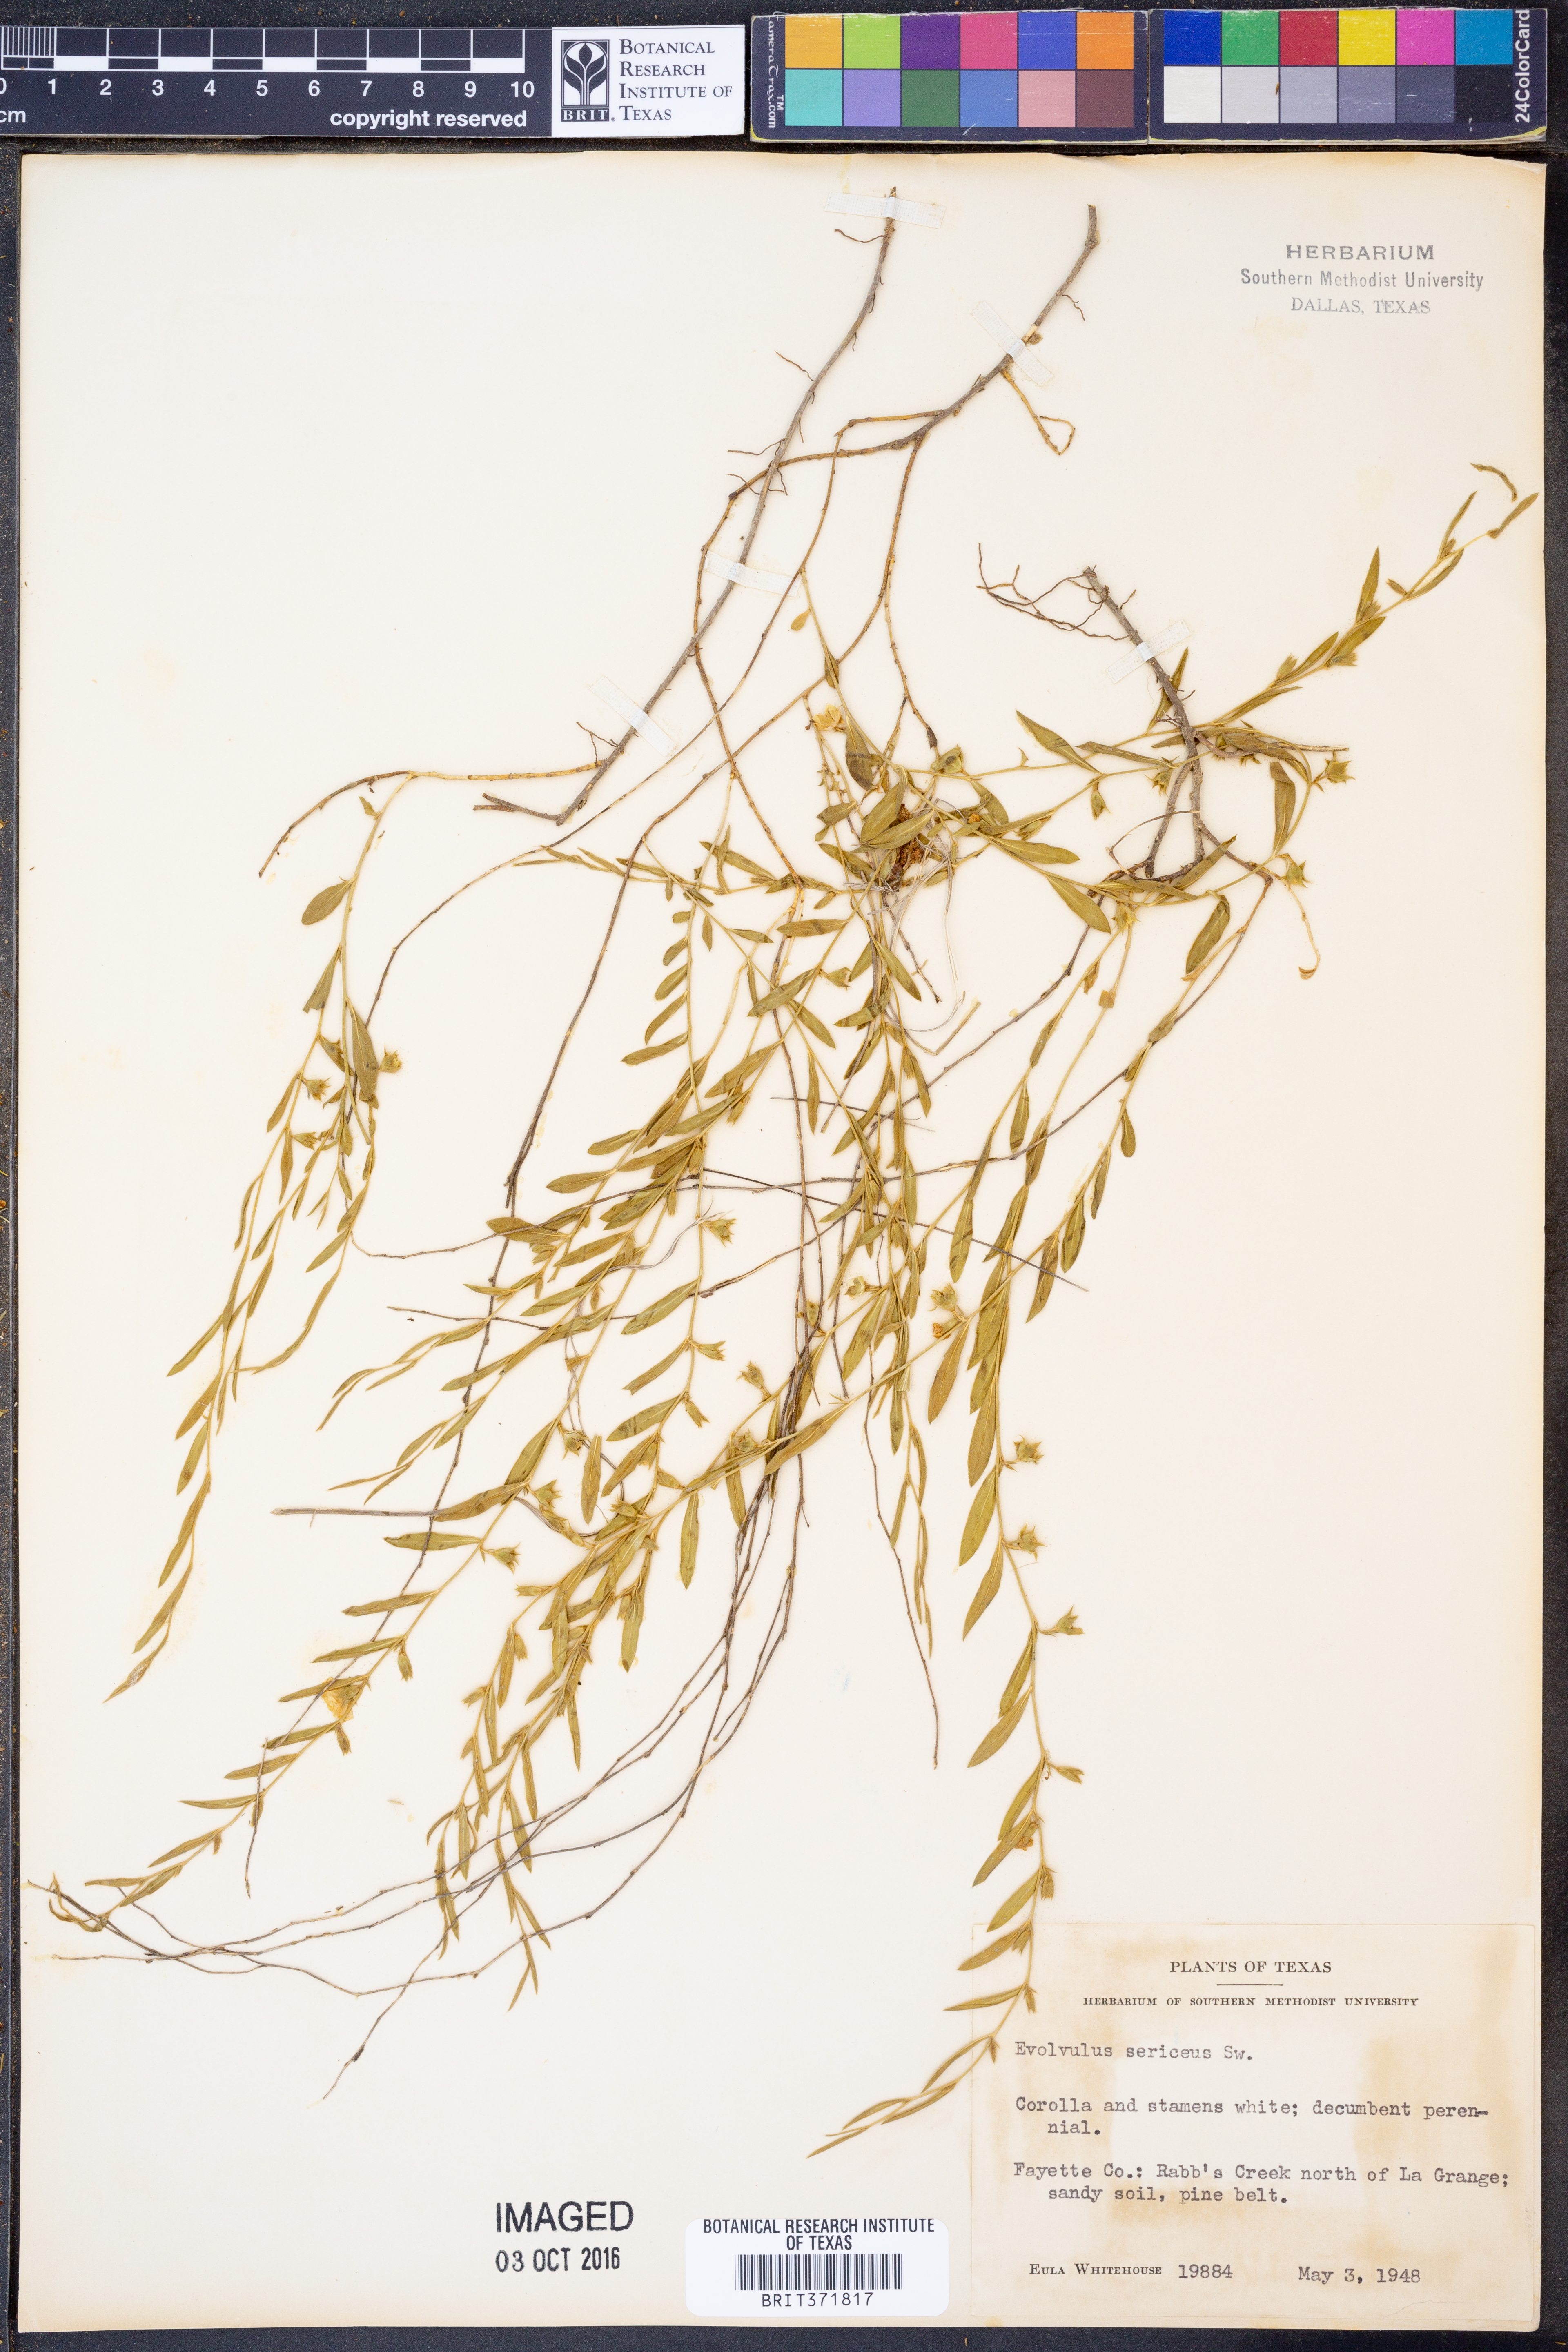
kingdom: Plantae
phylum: Tracheophyta
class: Magnoliopsida
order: Solanales
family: Convolvulaceae
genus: Evolvulus
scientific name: Evolvulus sericeus
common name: Blue dots
